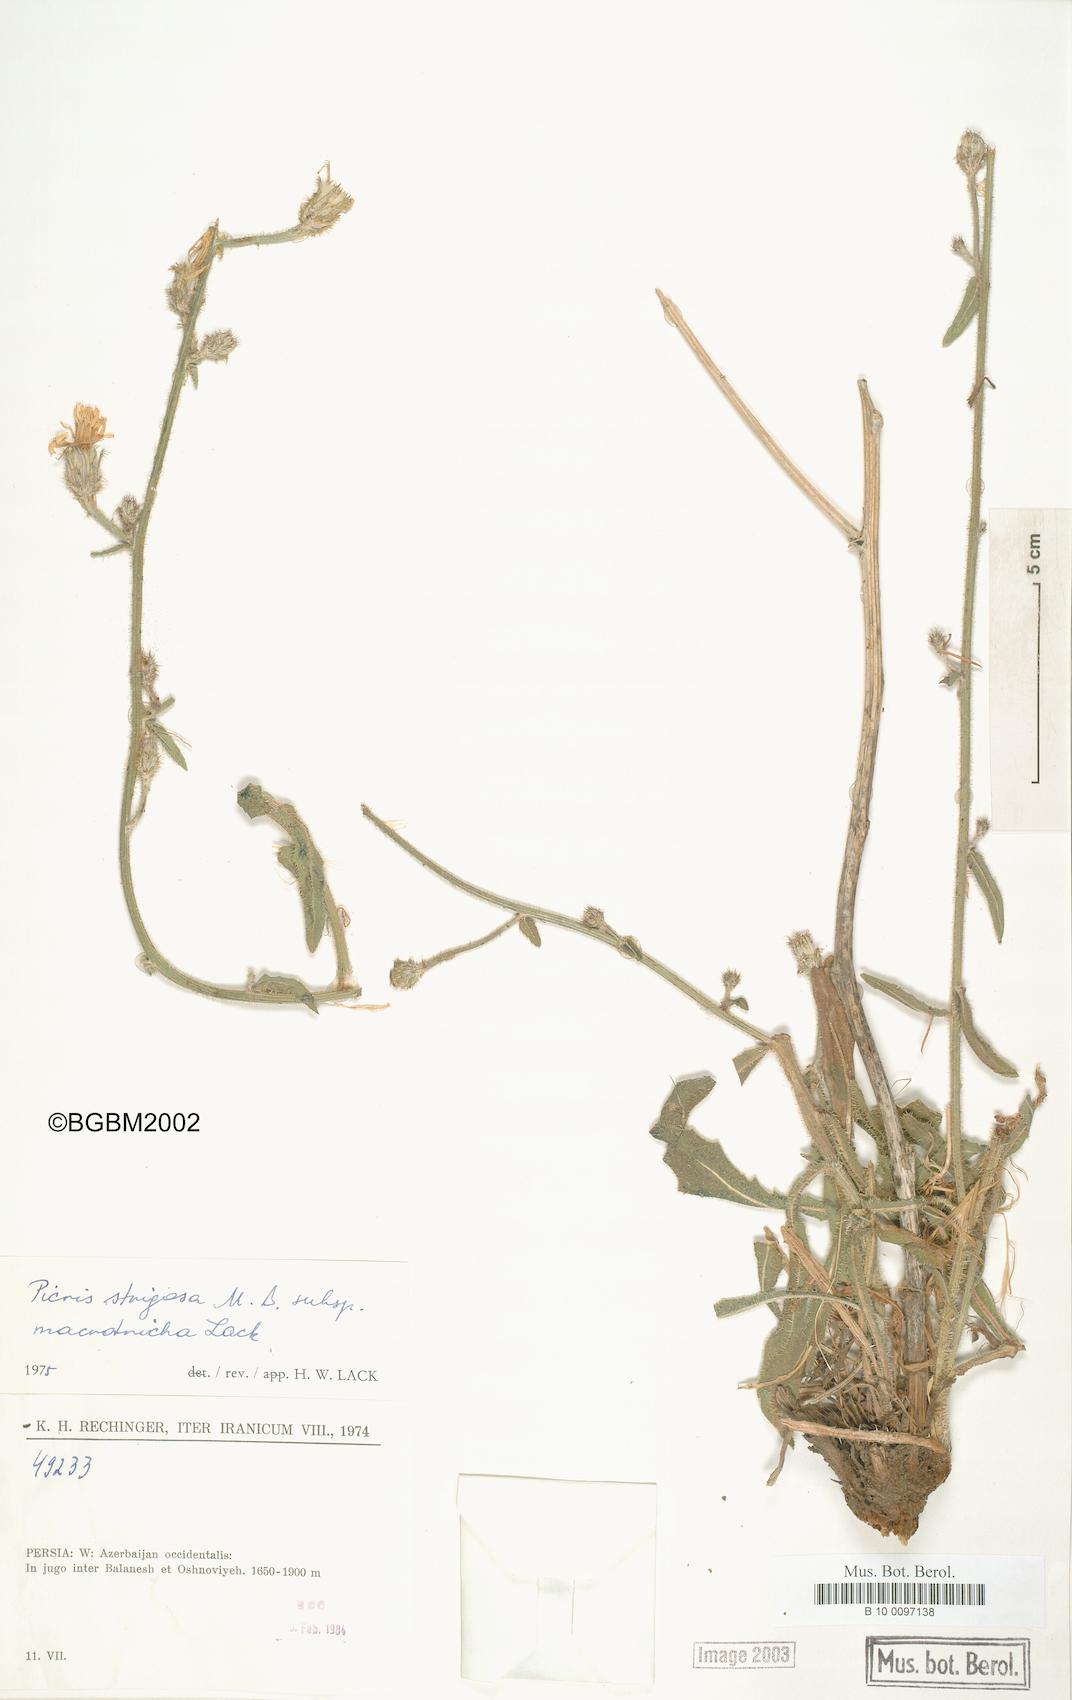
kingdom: Plantae
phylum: Tracheophyta
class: Magnoliopsida
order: Asterales
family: Asteraceae
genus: Picris
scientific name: Picris strigosa
